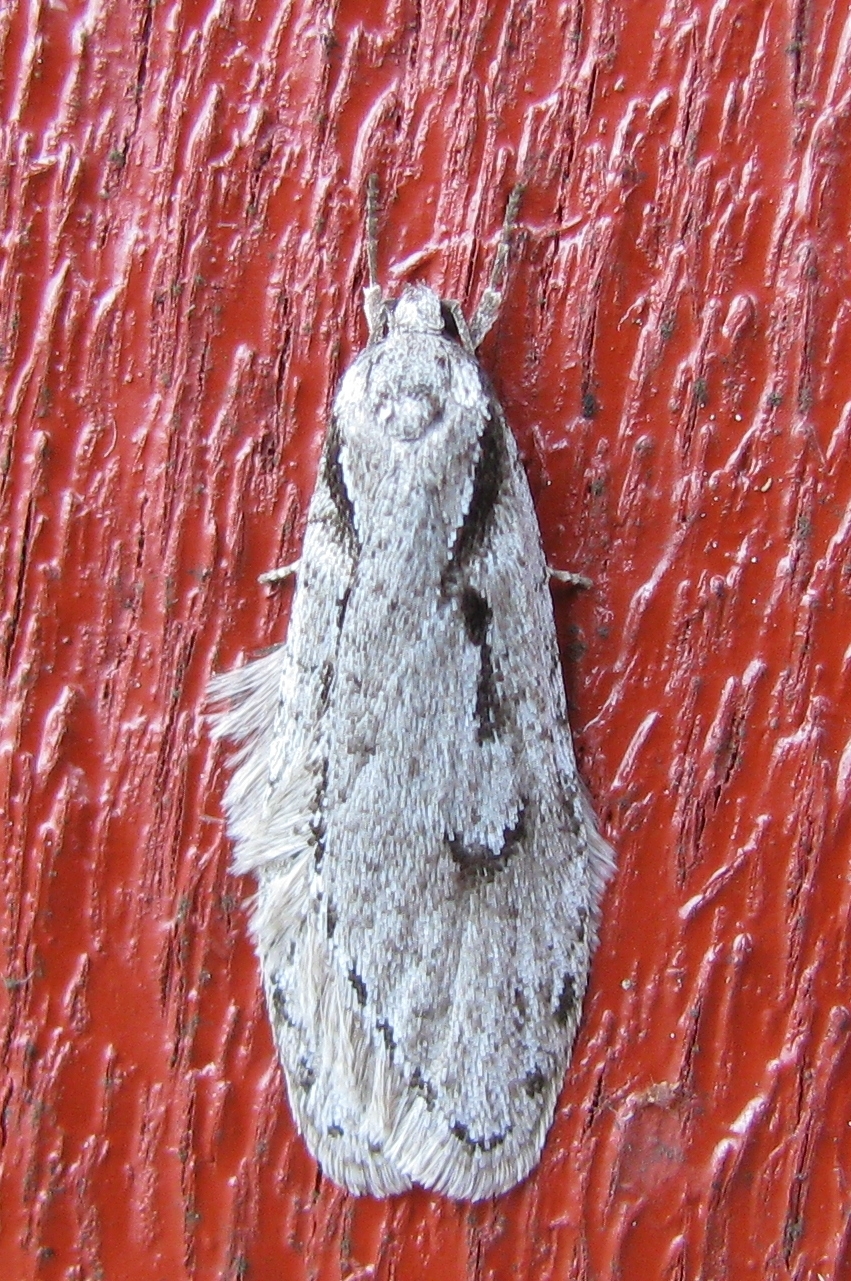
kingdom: Animalia
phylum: Arthropoda
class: Insecta
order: Lepidoptera
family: Depressariidae
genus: Semioscopis
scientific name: Semioscopis avellanella
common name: Early flat-body
